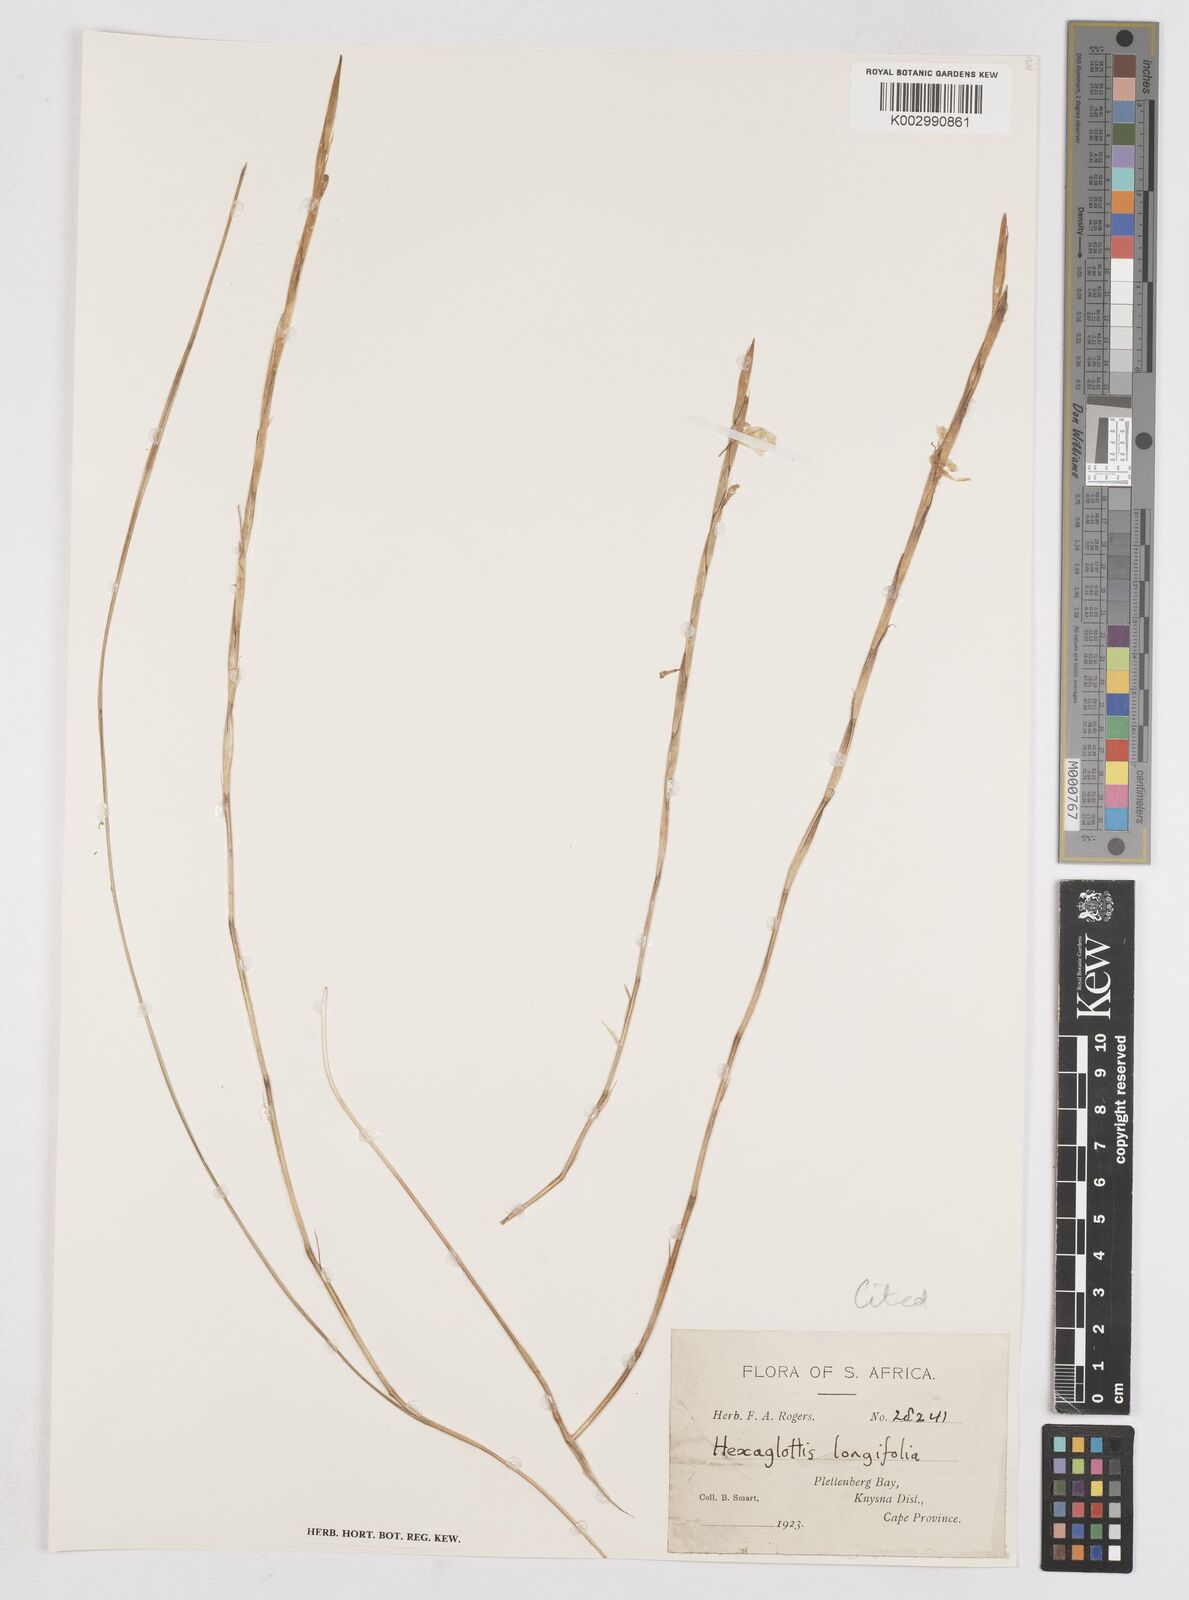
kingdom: Plantae
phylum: Tracheophyta
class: Liliopsida
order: Asparagales
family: Iridaceae
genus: Moraea
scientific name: Moraea virgata
